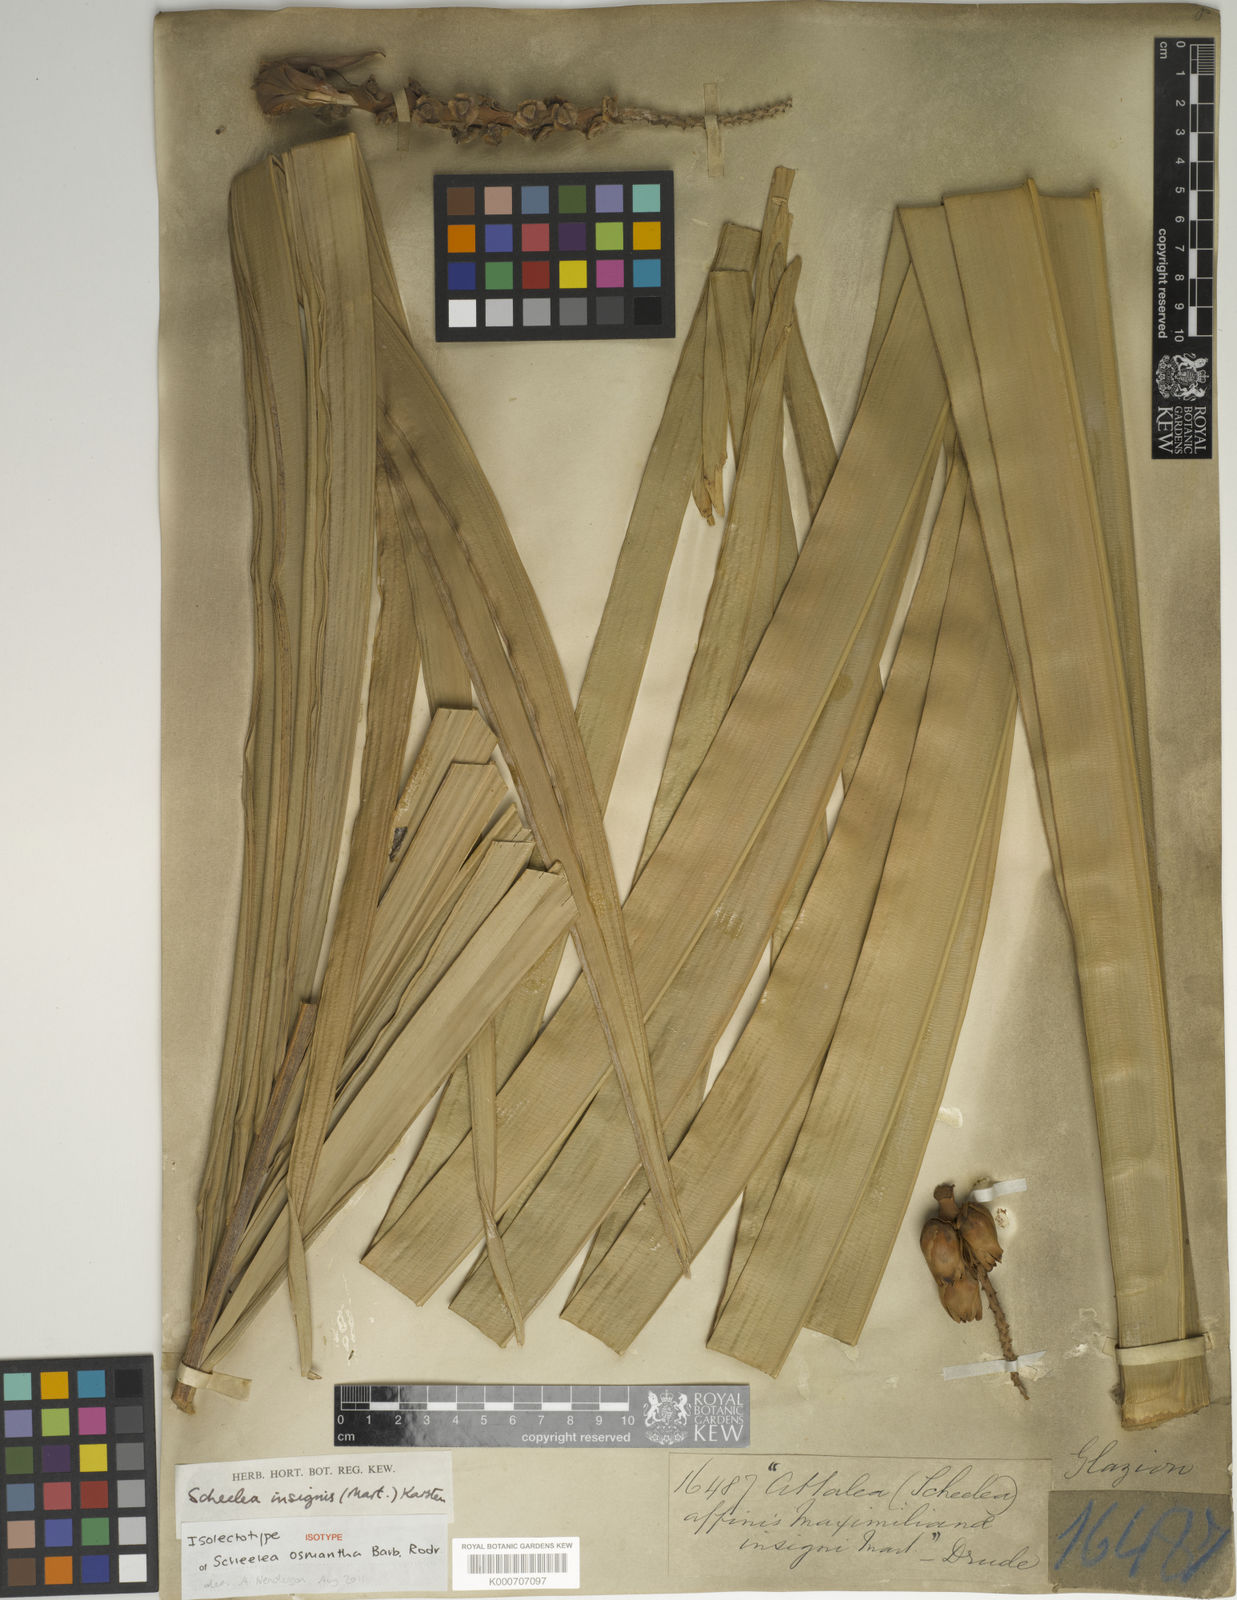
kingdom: Plantae
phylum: Tracheophyta
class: Liliopsida
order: Arecales
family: Arecaceae
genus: Attalea
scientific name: Attalea osmantha
